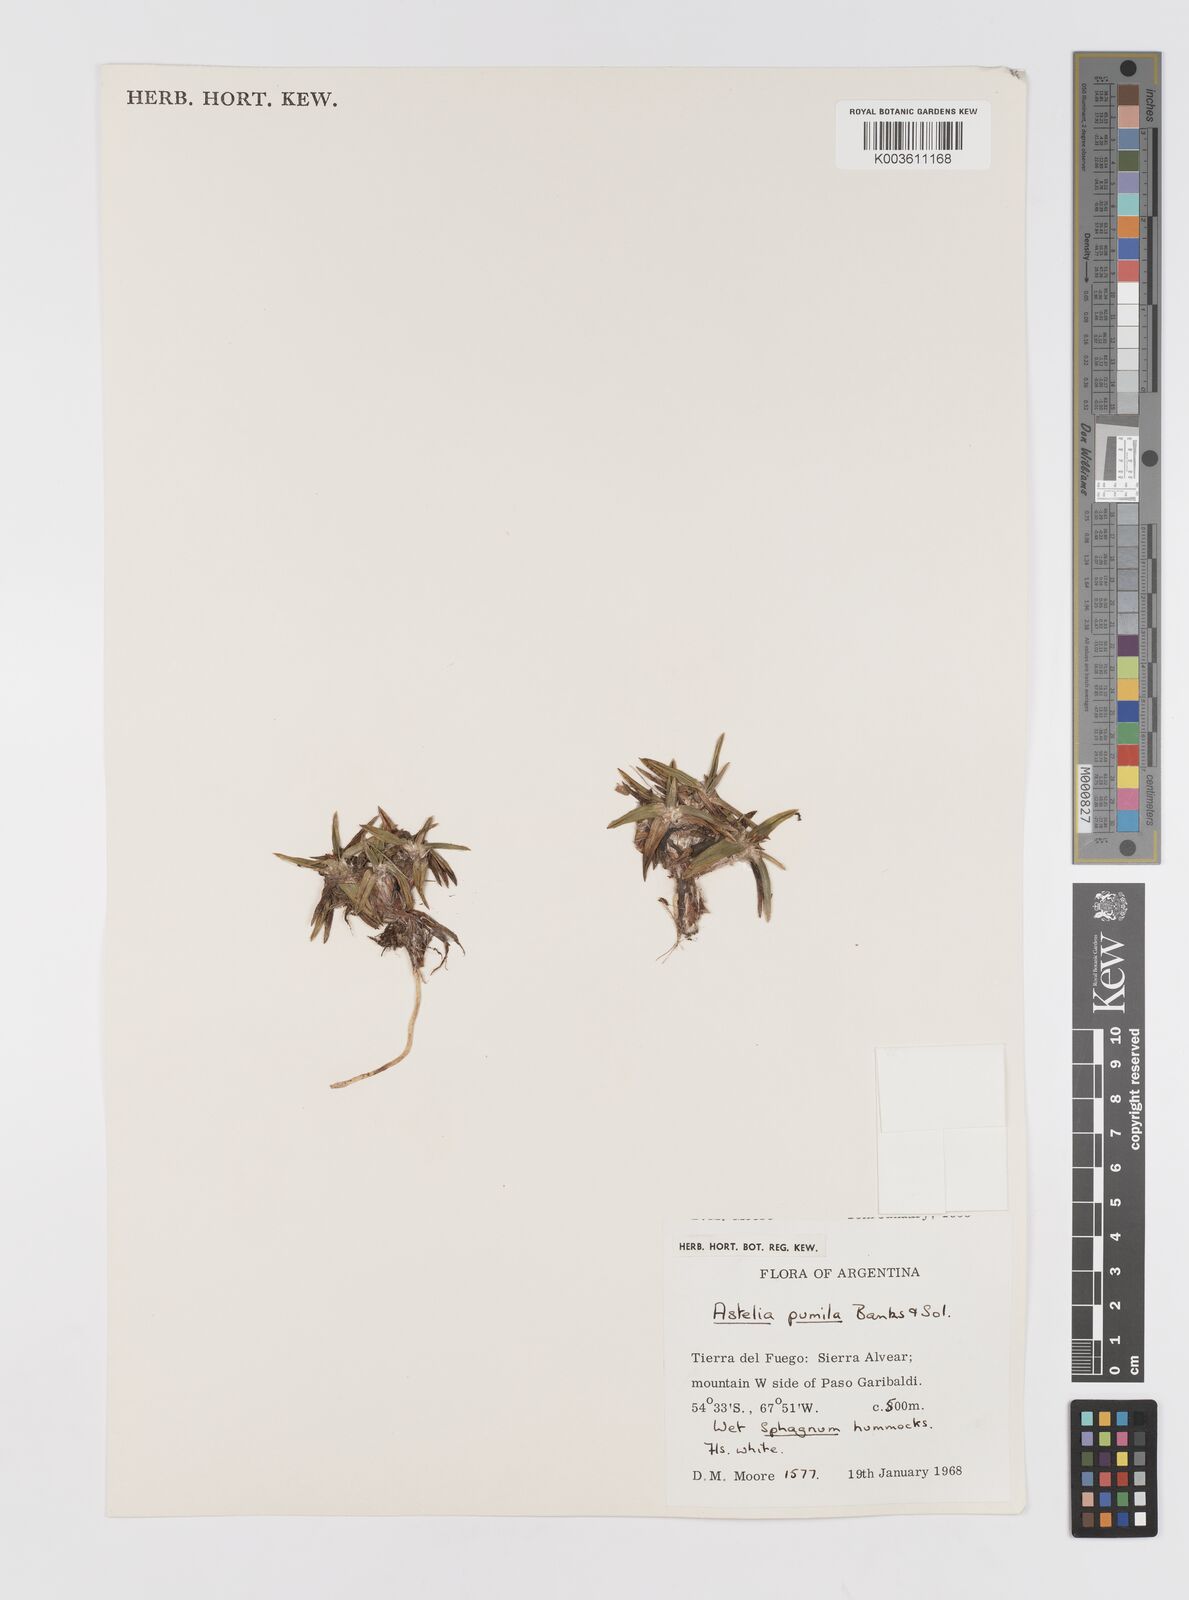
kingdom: Plantae
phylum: Tracheophyta
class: Liliopsida
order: Asparagales
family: Asteliaceae
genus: Astelia
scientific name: Astelia pumila
